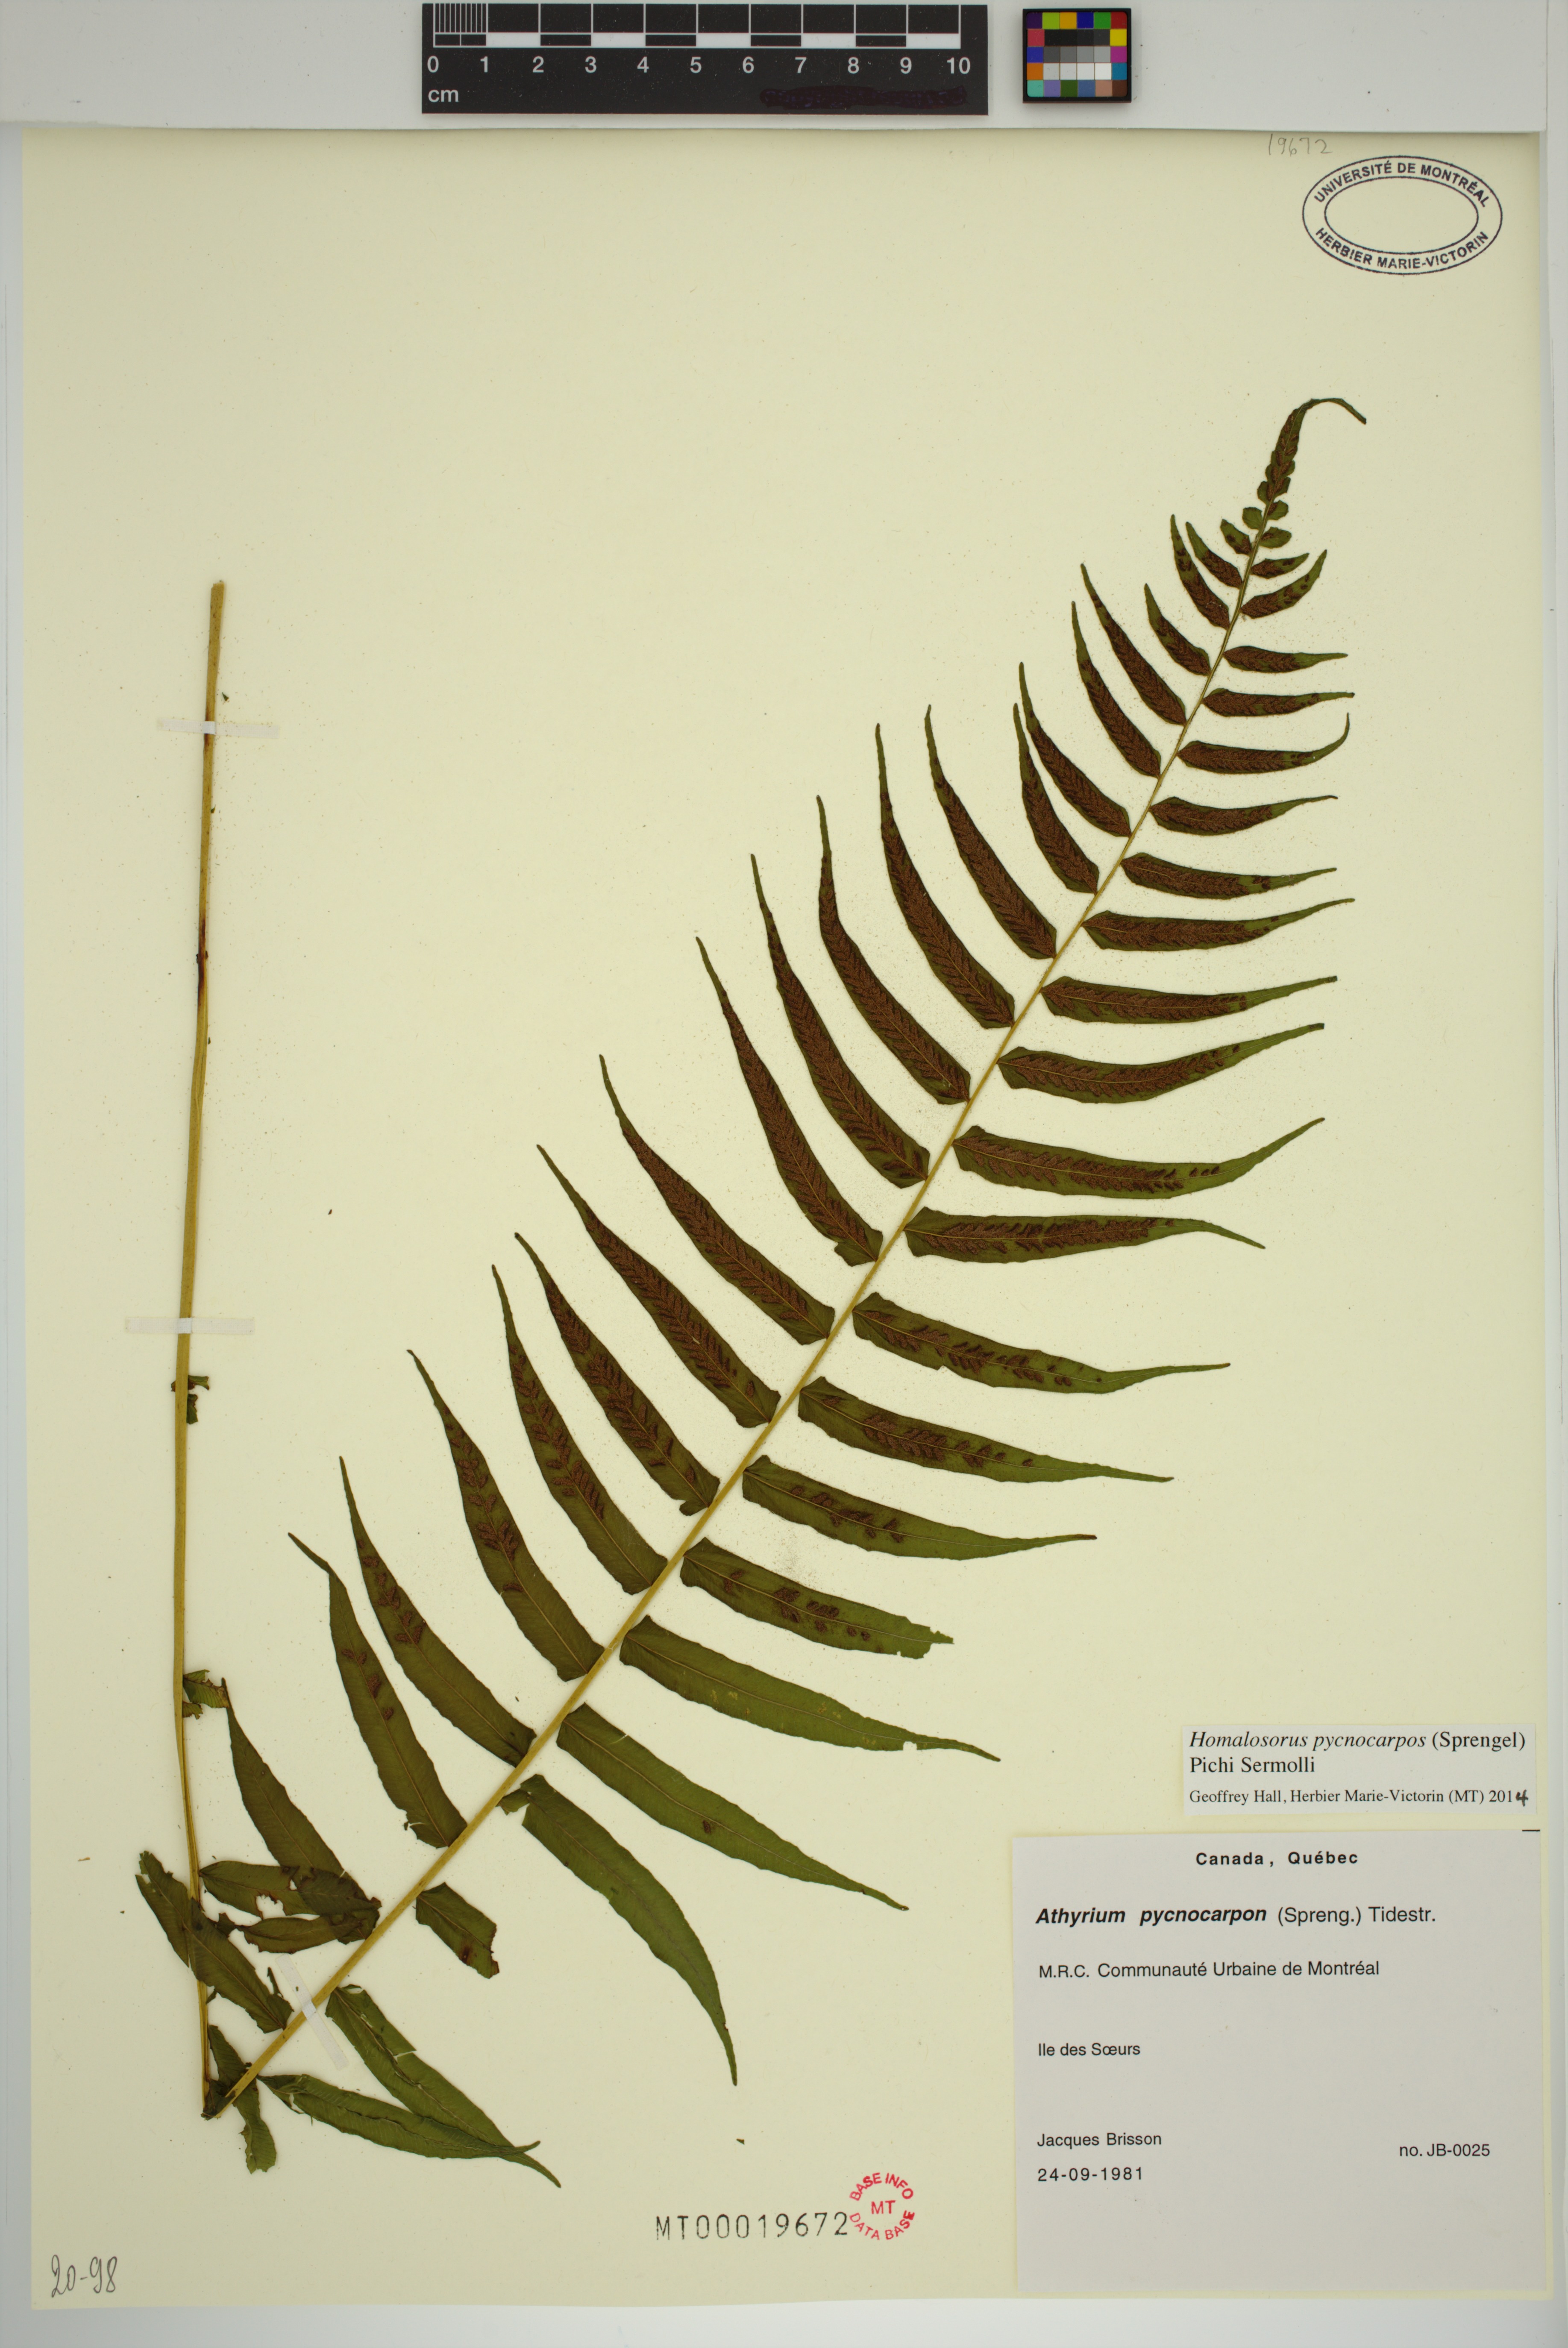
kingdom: Plantae
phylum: Tracheophyta
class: Polypodiopsida
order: Polypodiales
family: Diplaziopsidaceae
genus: Homalosorus
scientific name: Homalosorus pycnocarpos
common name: Glade fern
